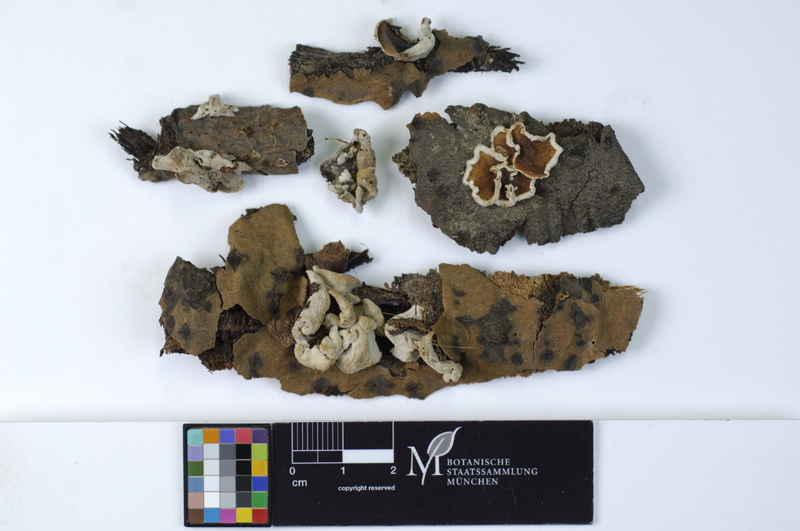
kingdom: Fungi
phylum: Basidiomycota
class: Agaricomycetes
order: Agaricales
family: Schizophyllaceae
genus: Schizophyllum
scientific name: Schizophyllum amplum
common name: Poplar bells
